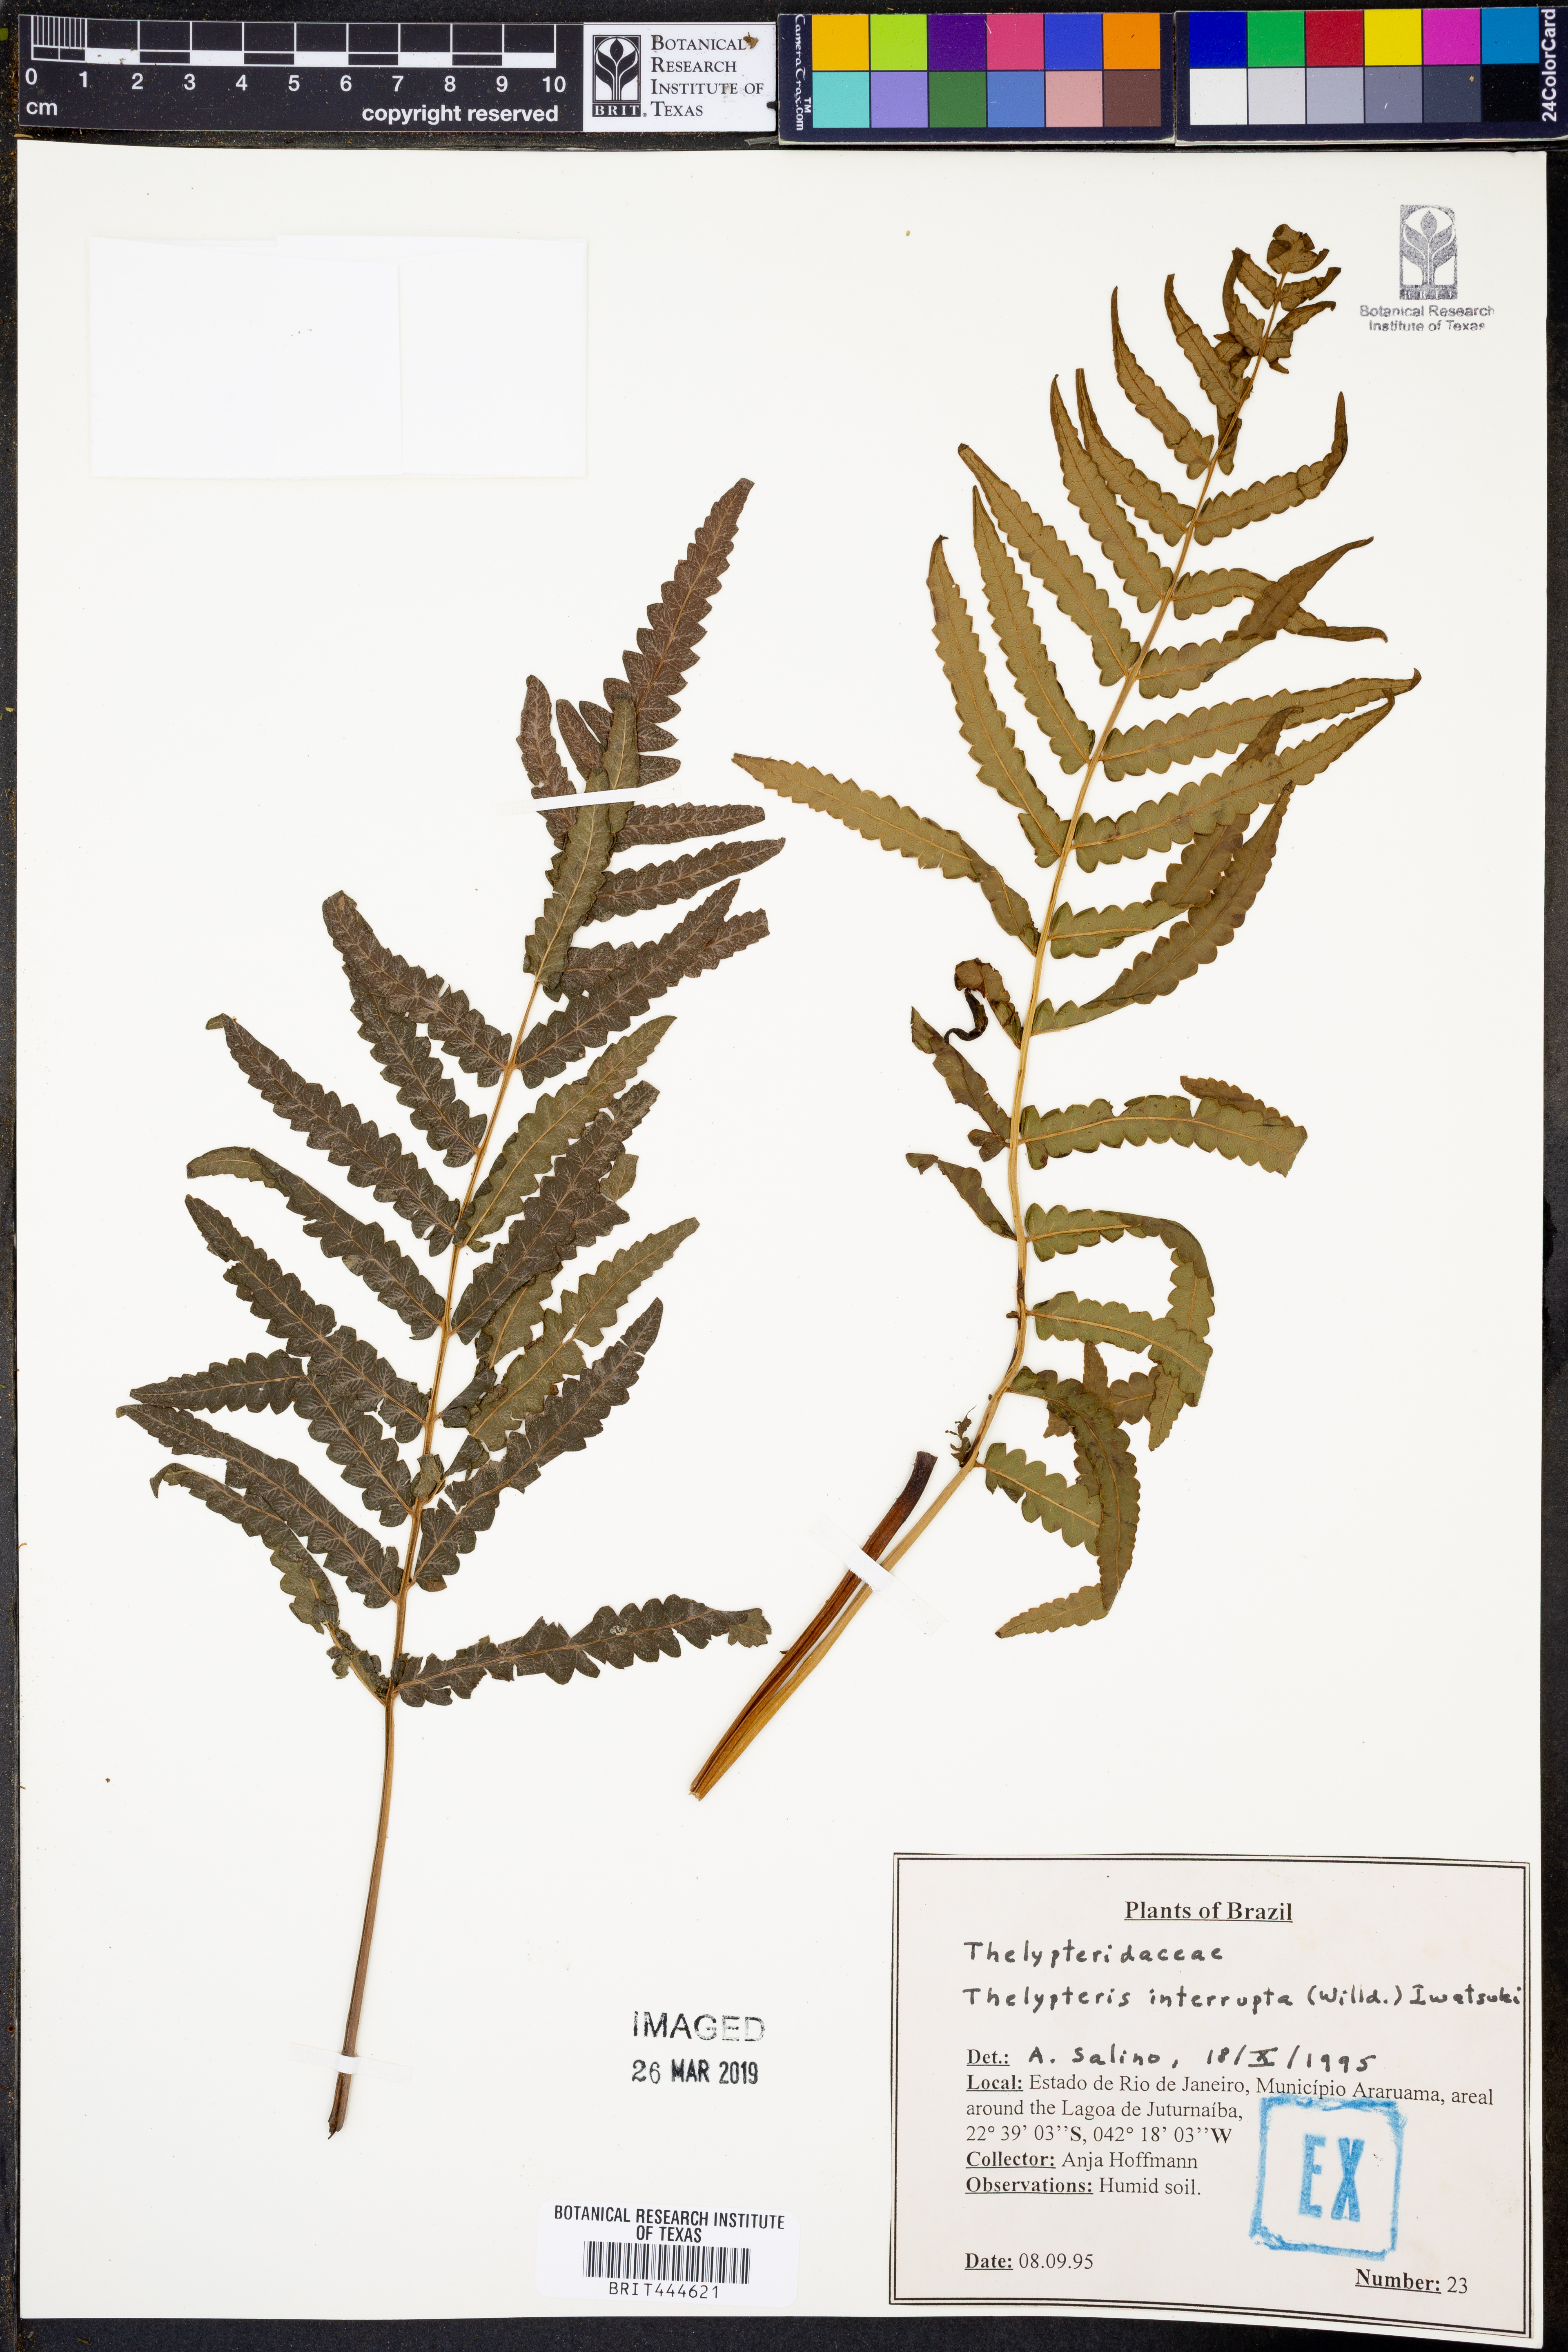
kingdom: Plantae
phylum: Tracheophyta
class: Polypodiopsida
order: Polypodiales
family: Thelypteridaceae
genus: Cyclosorus
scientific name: Cyclosorus interruptus
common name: Neke fern
